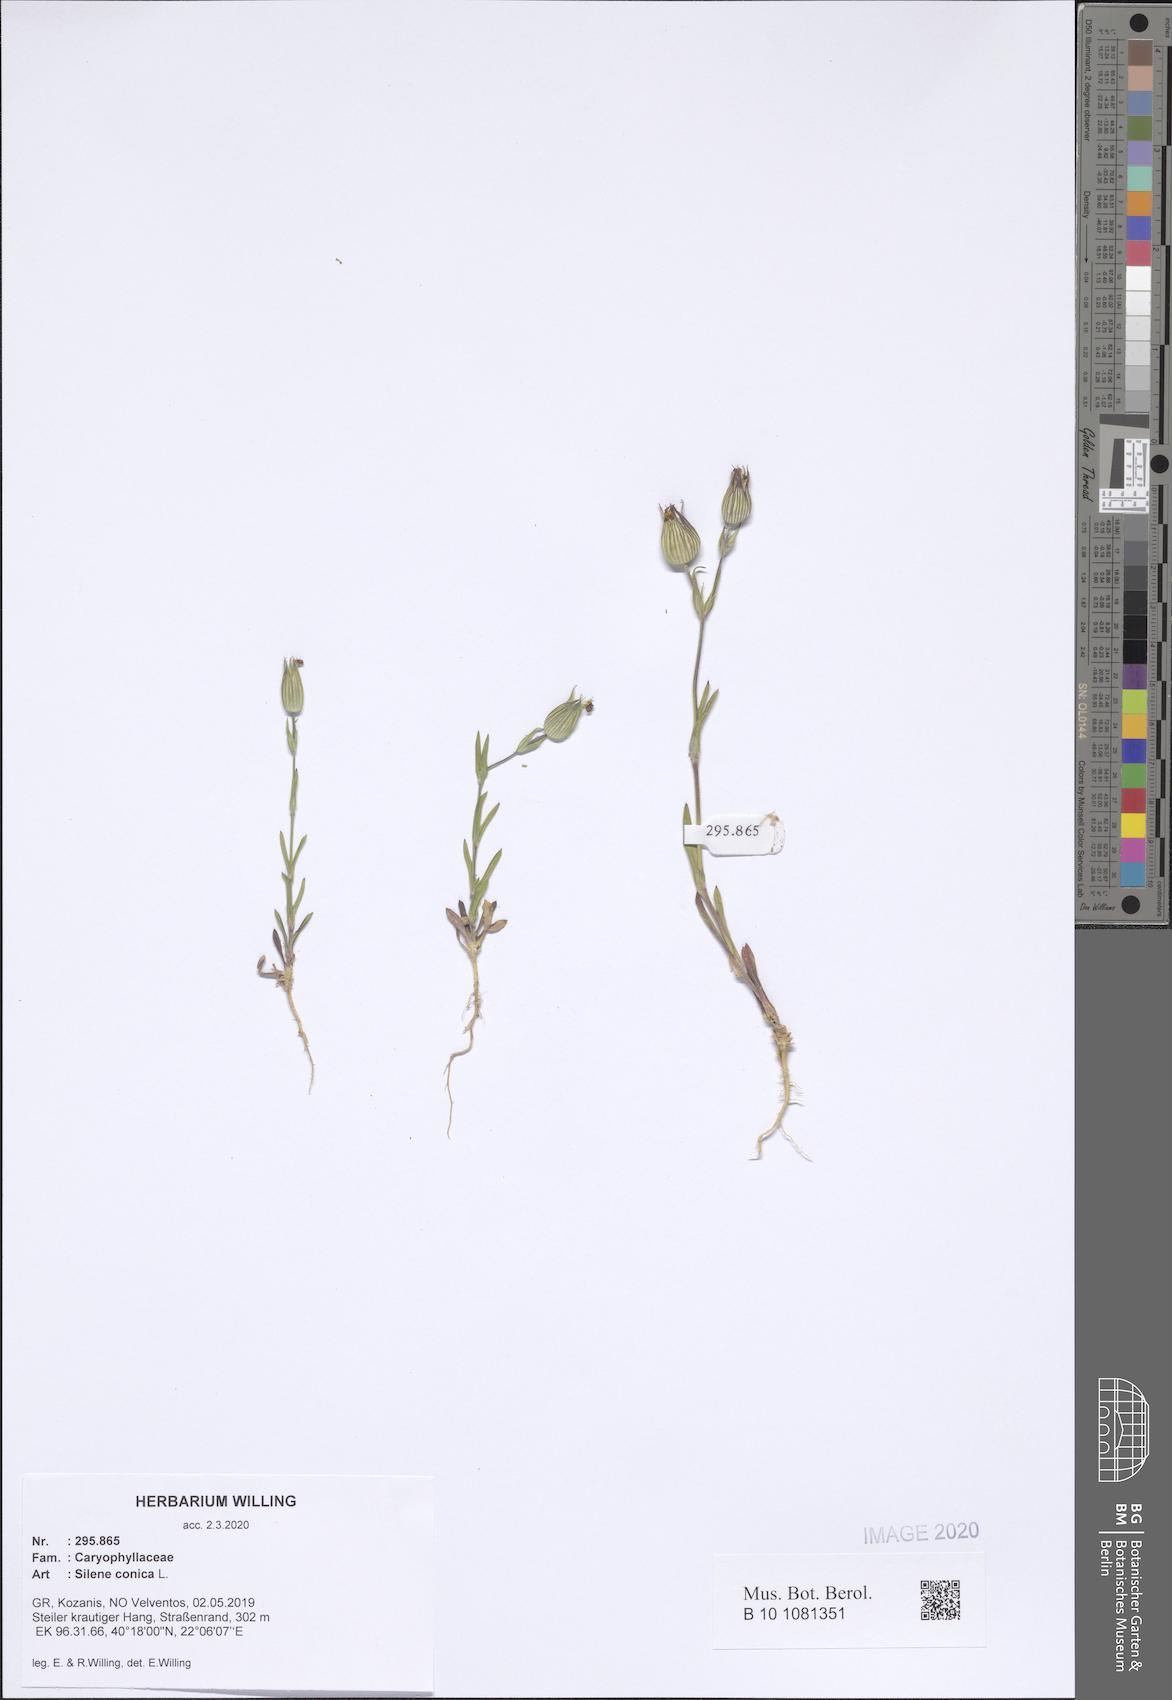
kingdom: Plantae
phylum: Tracheophyta
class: Magnoliopsida
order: Caryophyllales
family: Caryophyllaceae
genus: Silene
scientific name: Silene conica
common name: Sand catchfly
